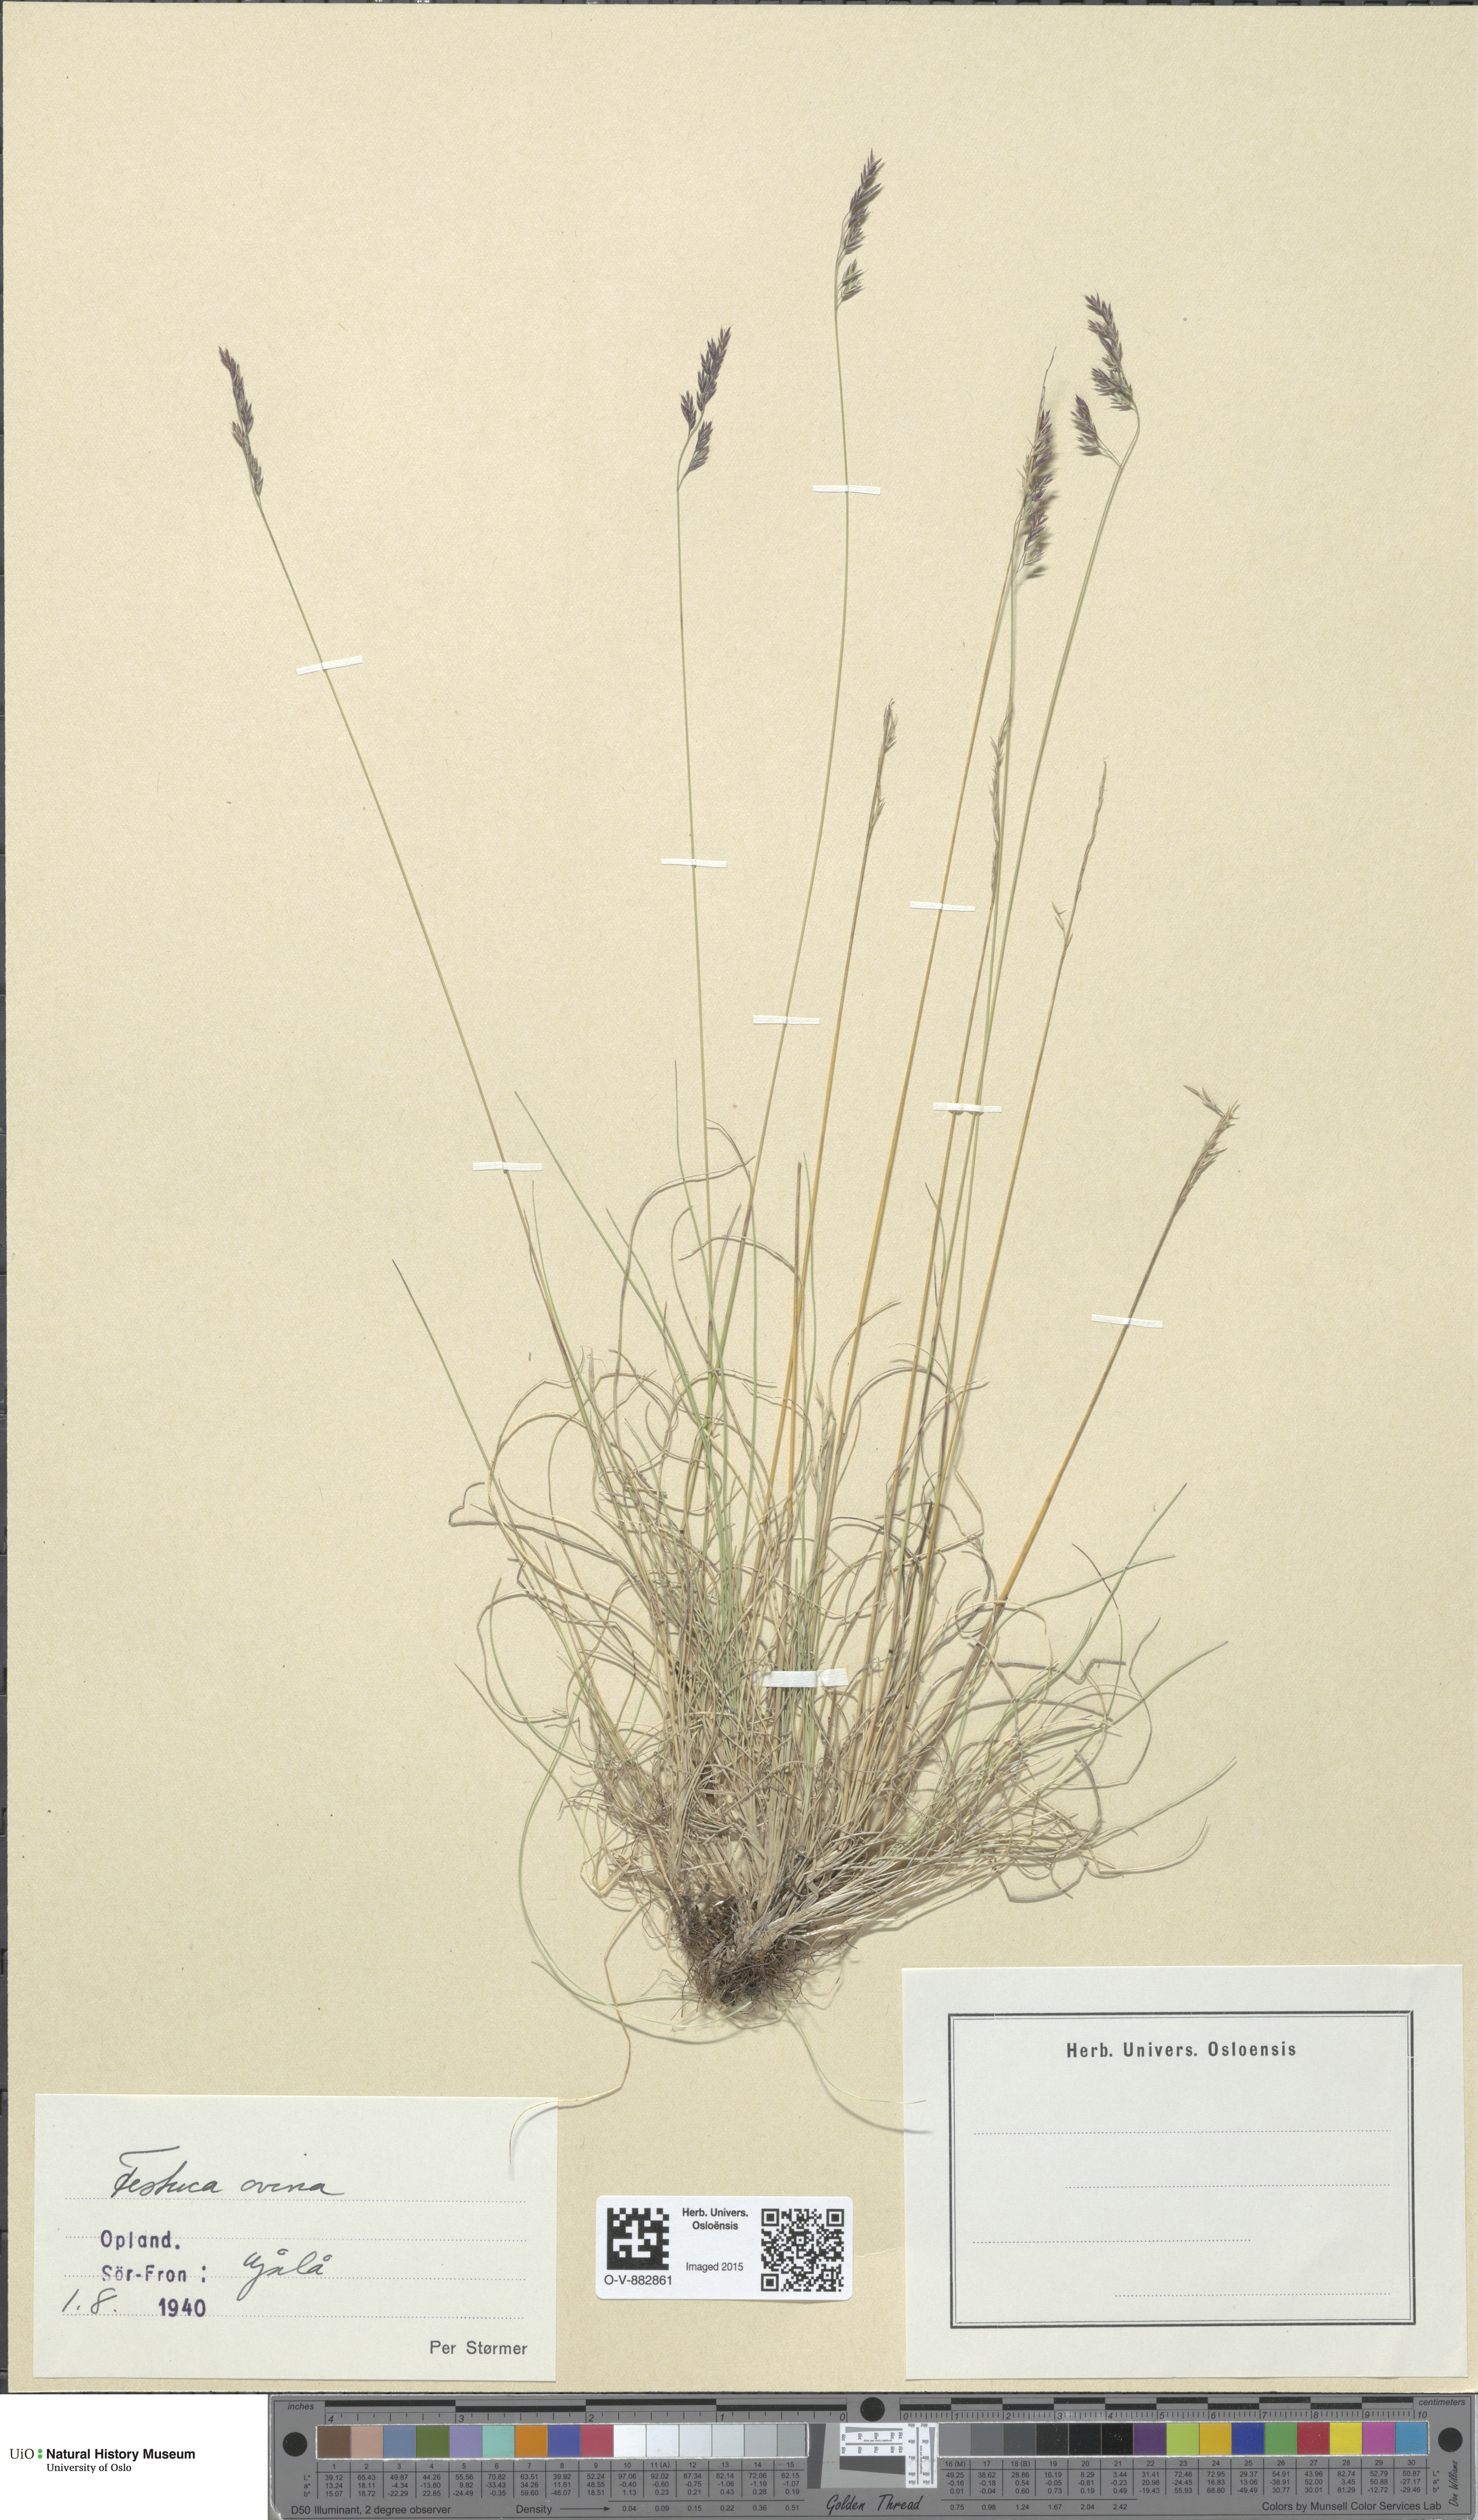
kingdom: Plantae
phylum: Tracheophyta
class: Liliopsida
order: Poales
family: Poaceae
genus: Festuca
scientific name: Festuca ovina
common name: Sheep fescue
